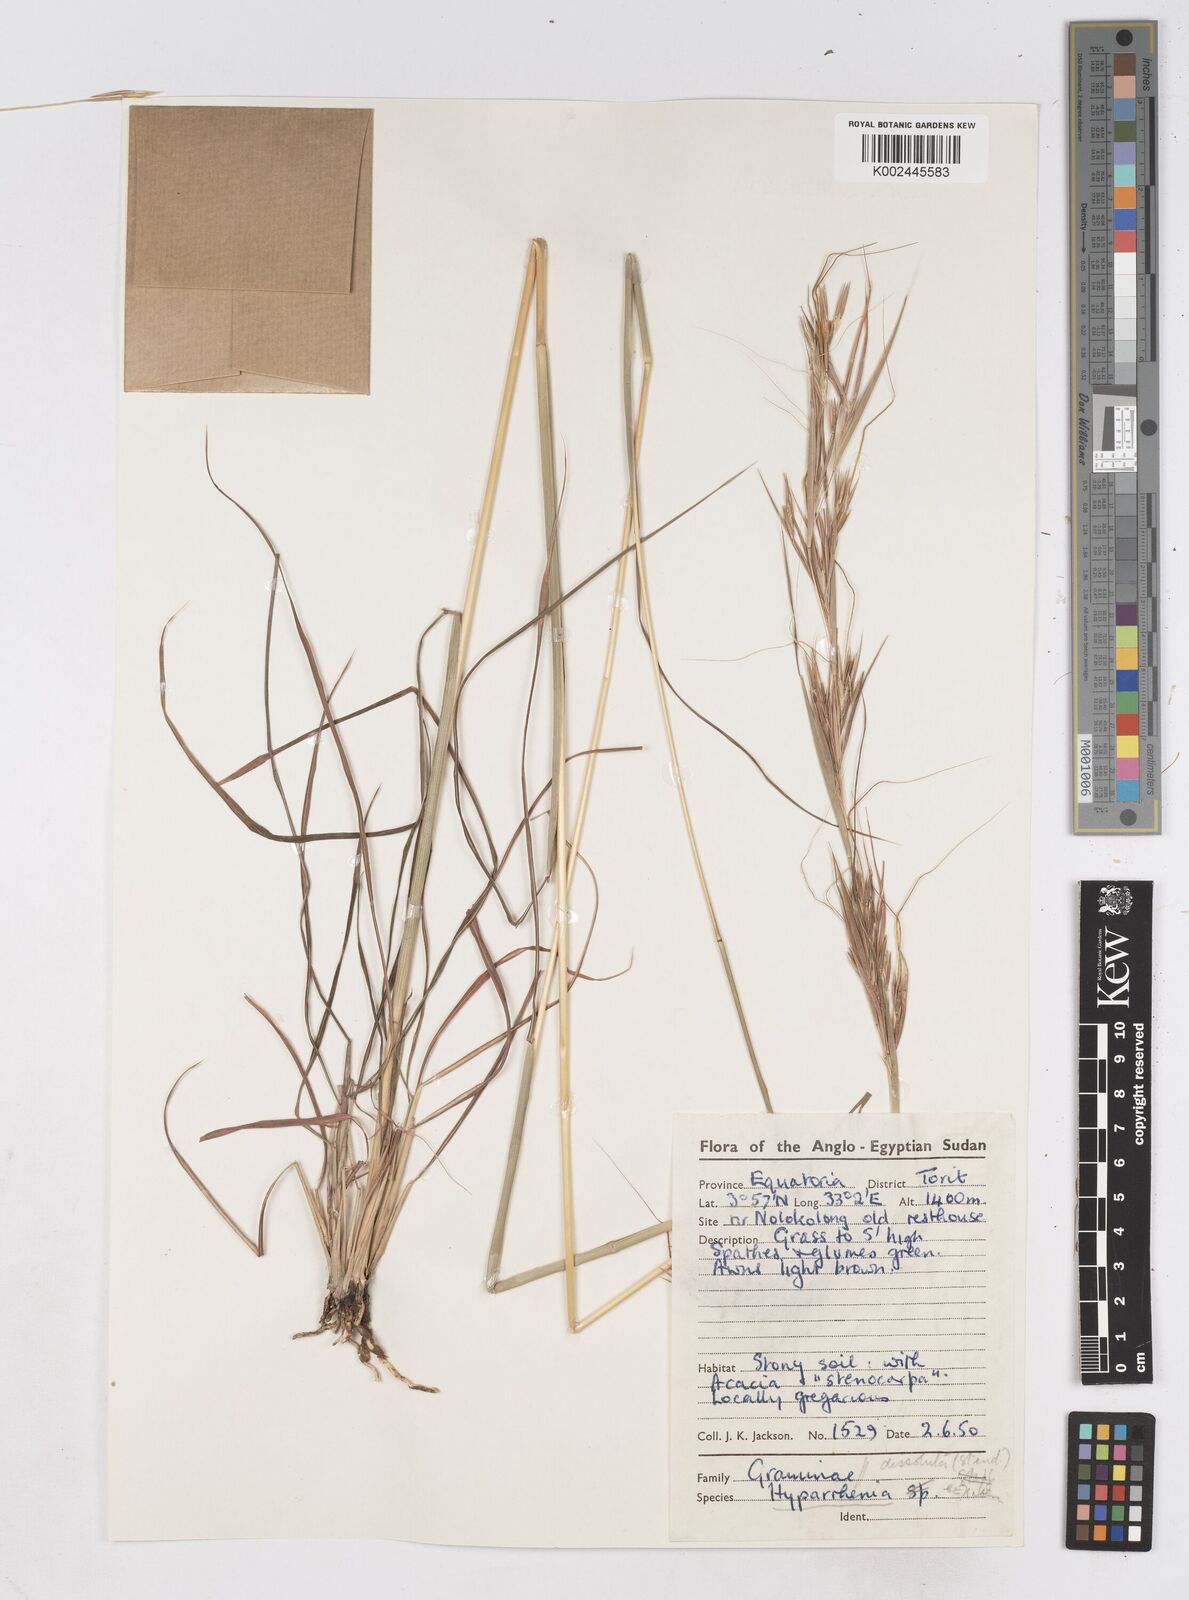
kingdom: Plantae
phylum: Tracheophyta
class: Liliopsida
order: Poales
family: Poaceae
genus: Hyperthelia
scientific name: Hyperthelia dissoluta
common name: Yellow thatching grass
